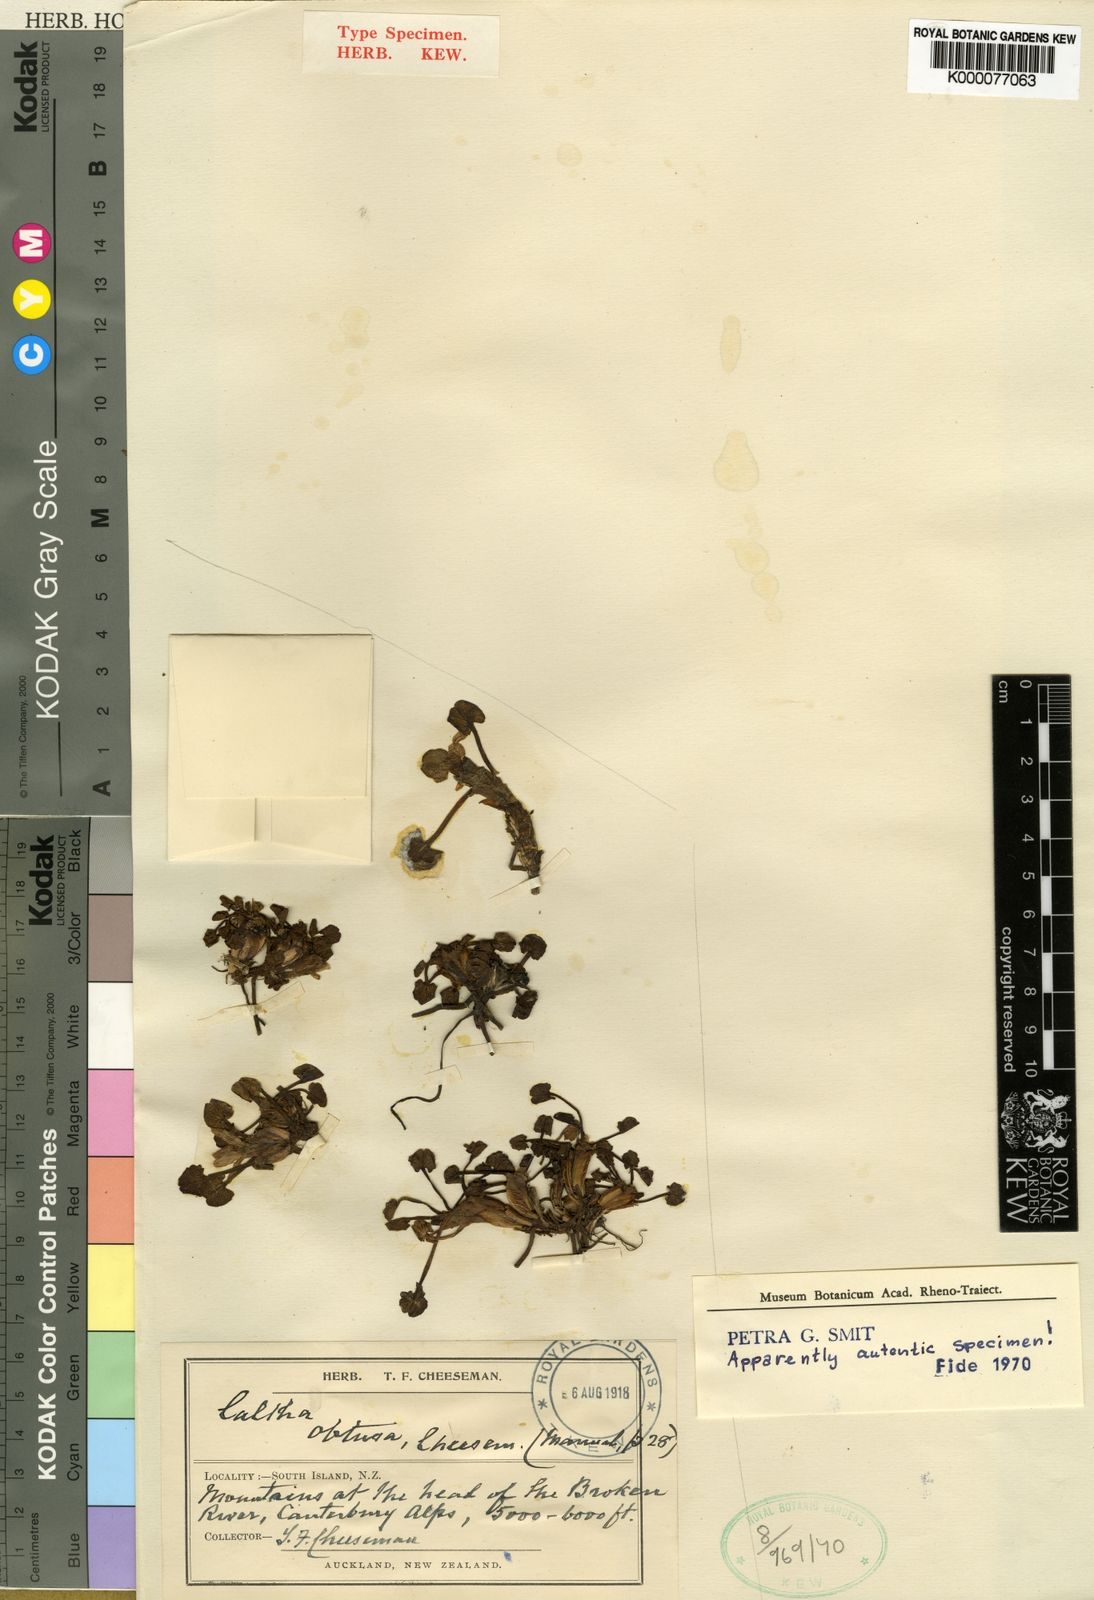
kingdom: Plantae
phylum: Tracheophyta
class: Magnoliopsida
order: Ranunculales
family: Ranunculaceae
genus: Caltha
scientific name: Caltha obtusa
